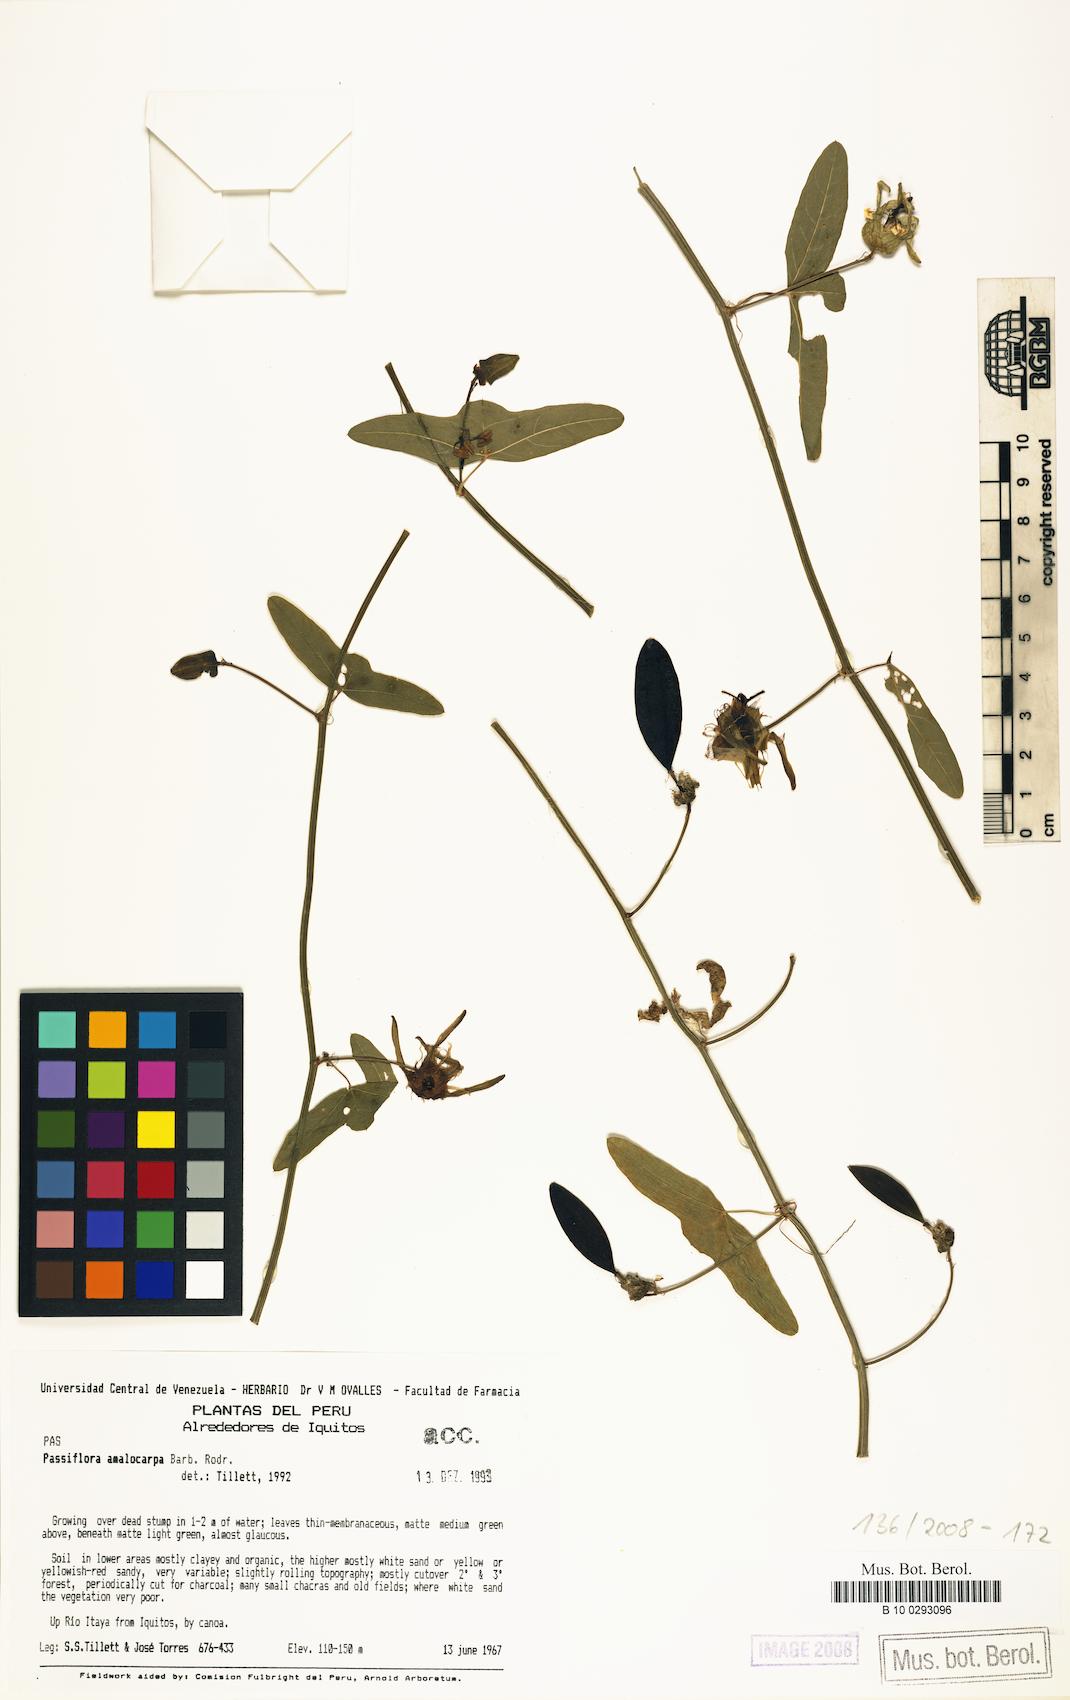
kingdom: Plantae
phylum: Tracheophyta
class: Magnoliopsida
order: Malpighiales
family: Passifloraceae
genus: Passiflora
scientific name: Passiflora amalocarpa
